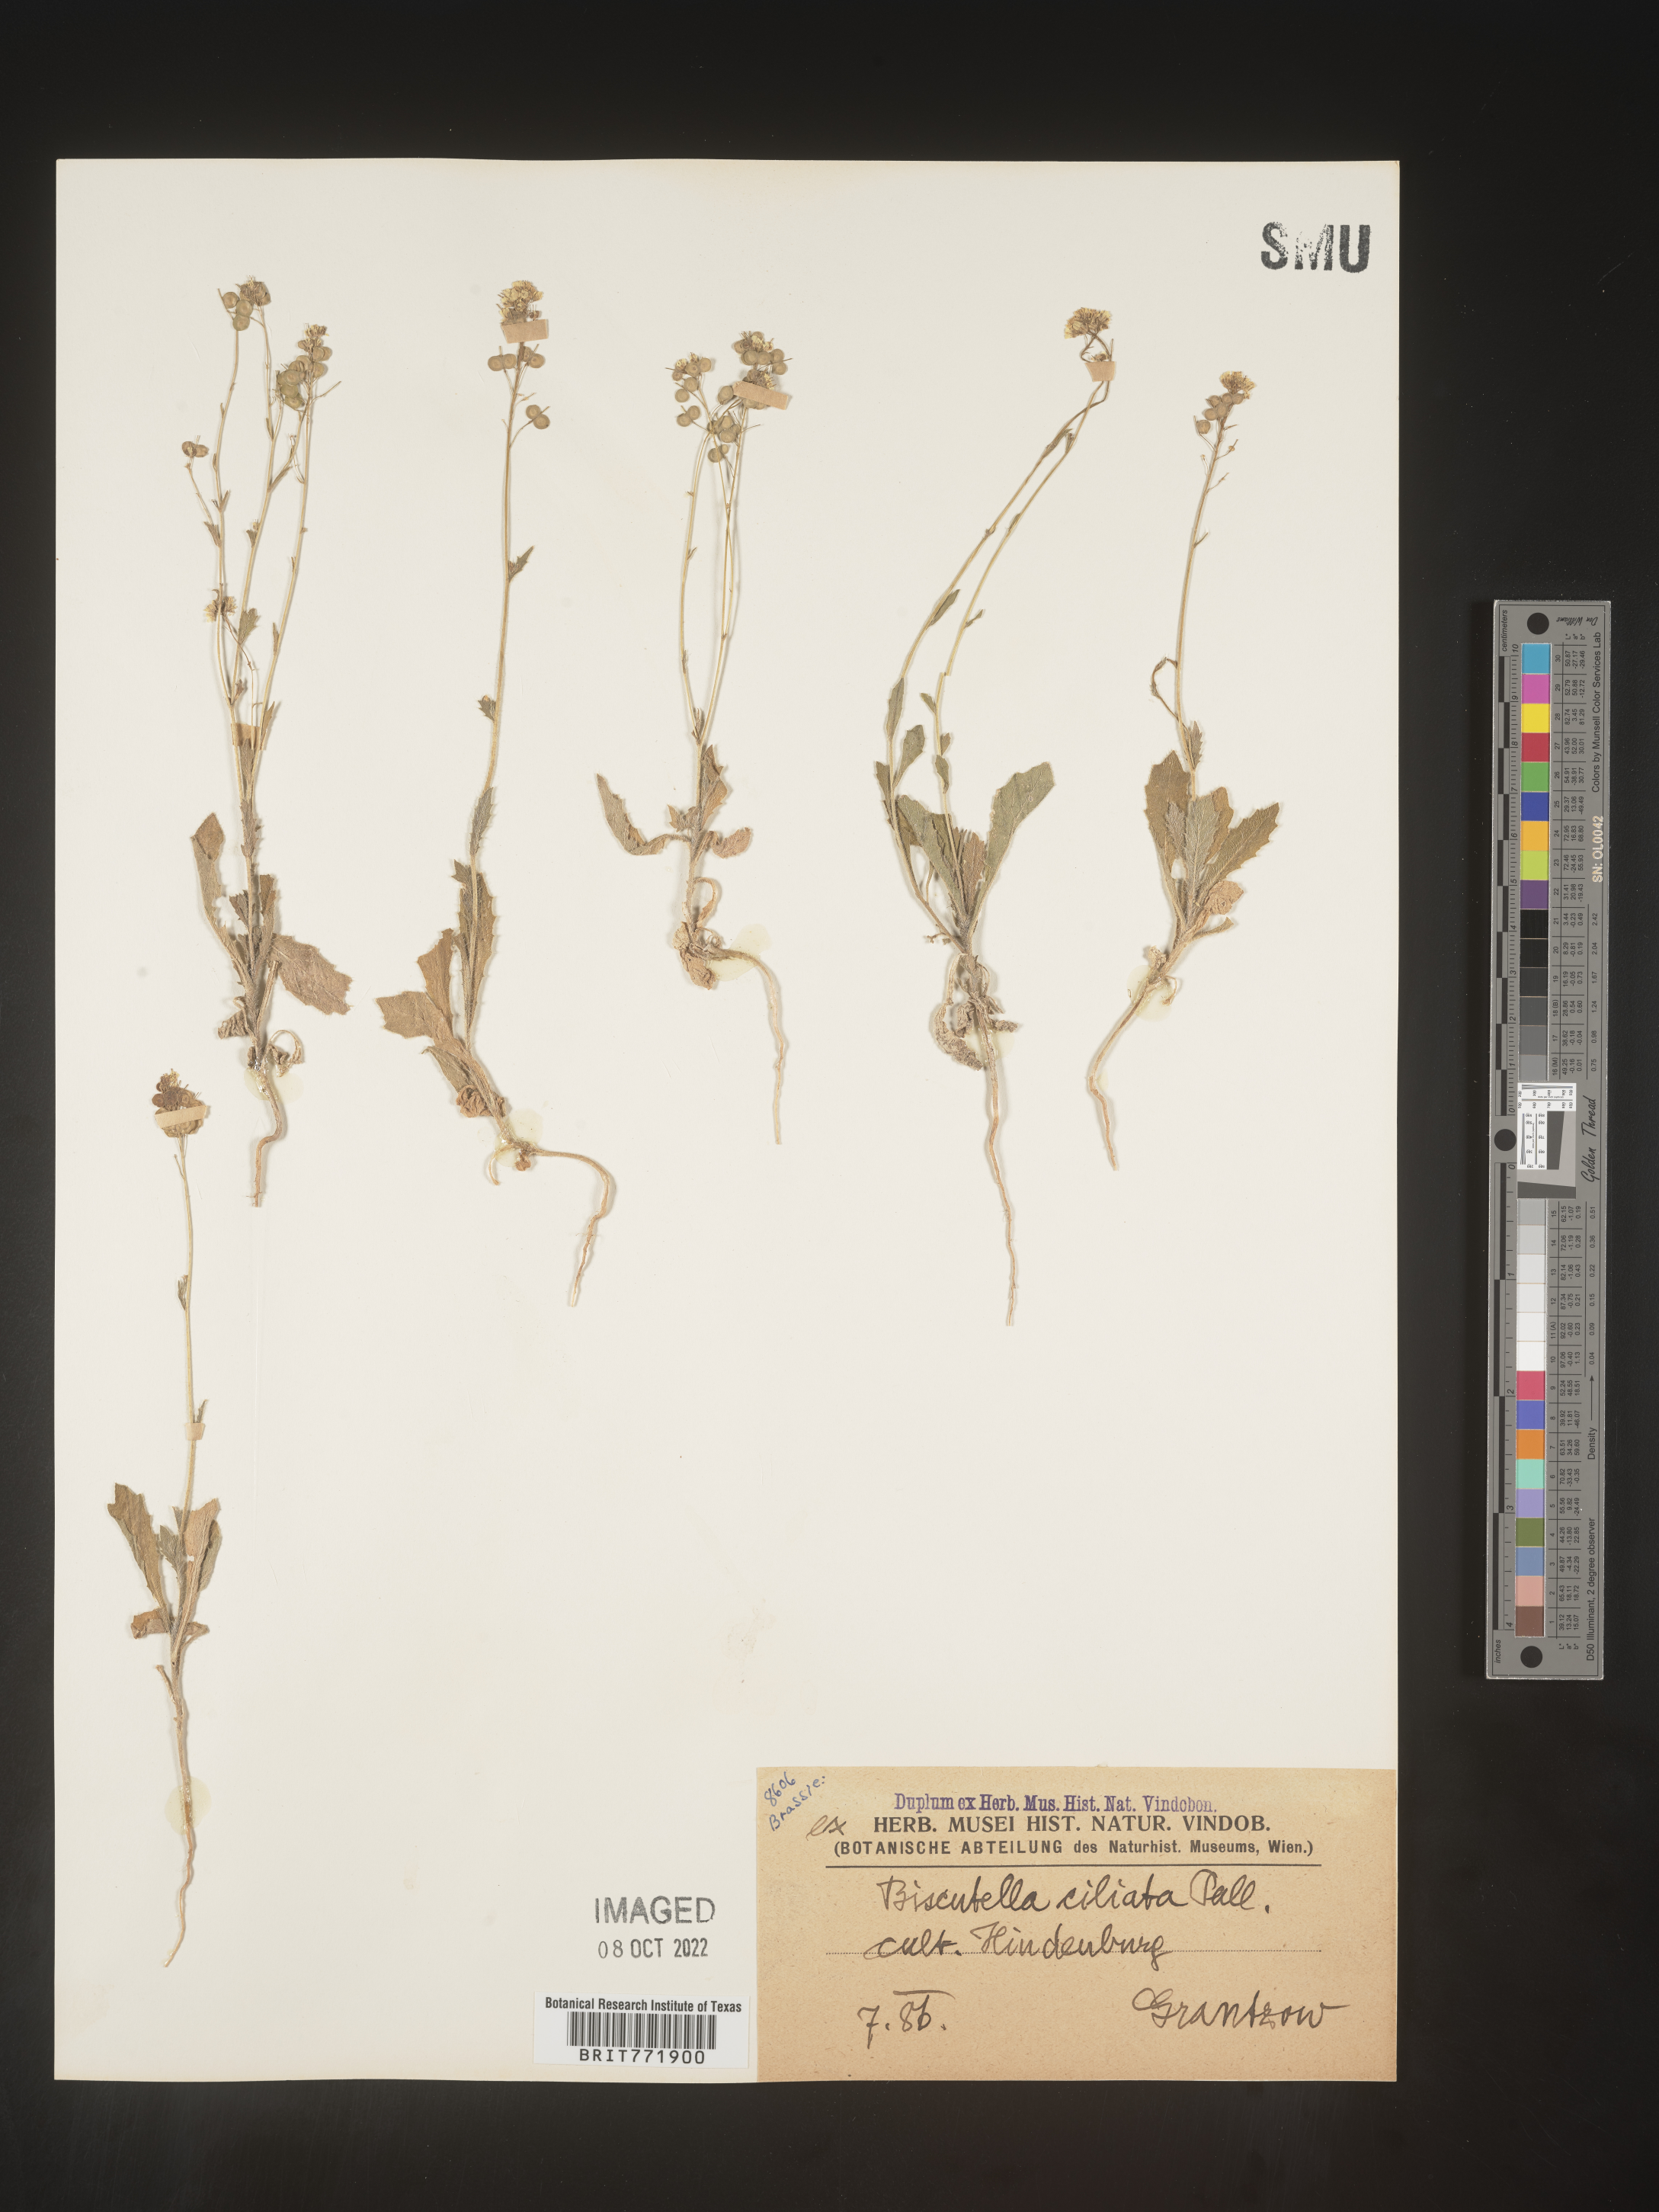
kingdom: Plantae
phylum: Tracheophyta
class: Magnoliopsida
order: Brassicales
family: Brassicaceae
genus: Biscutella
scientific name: Biscutella
